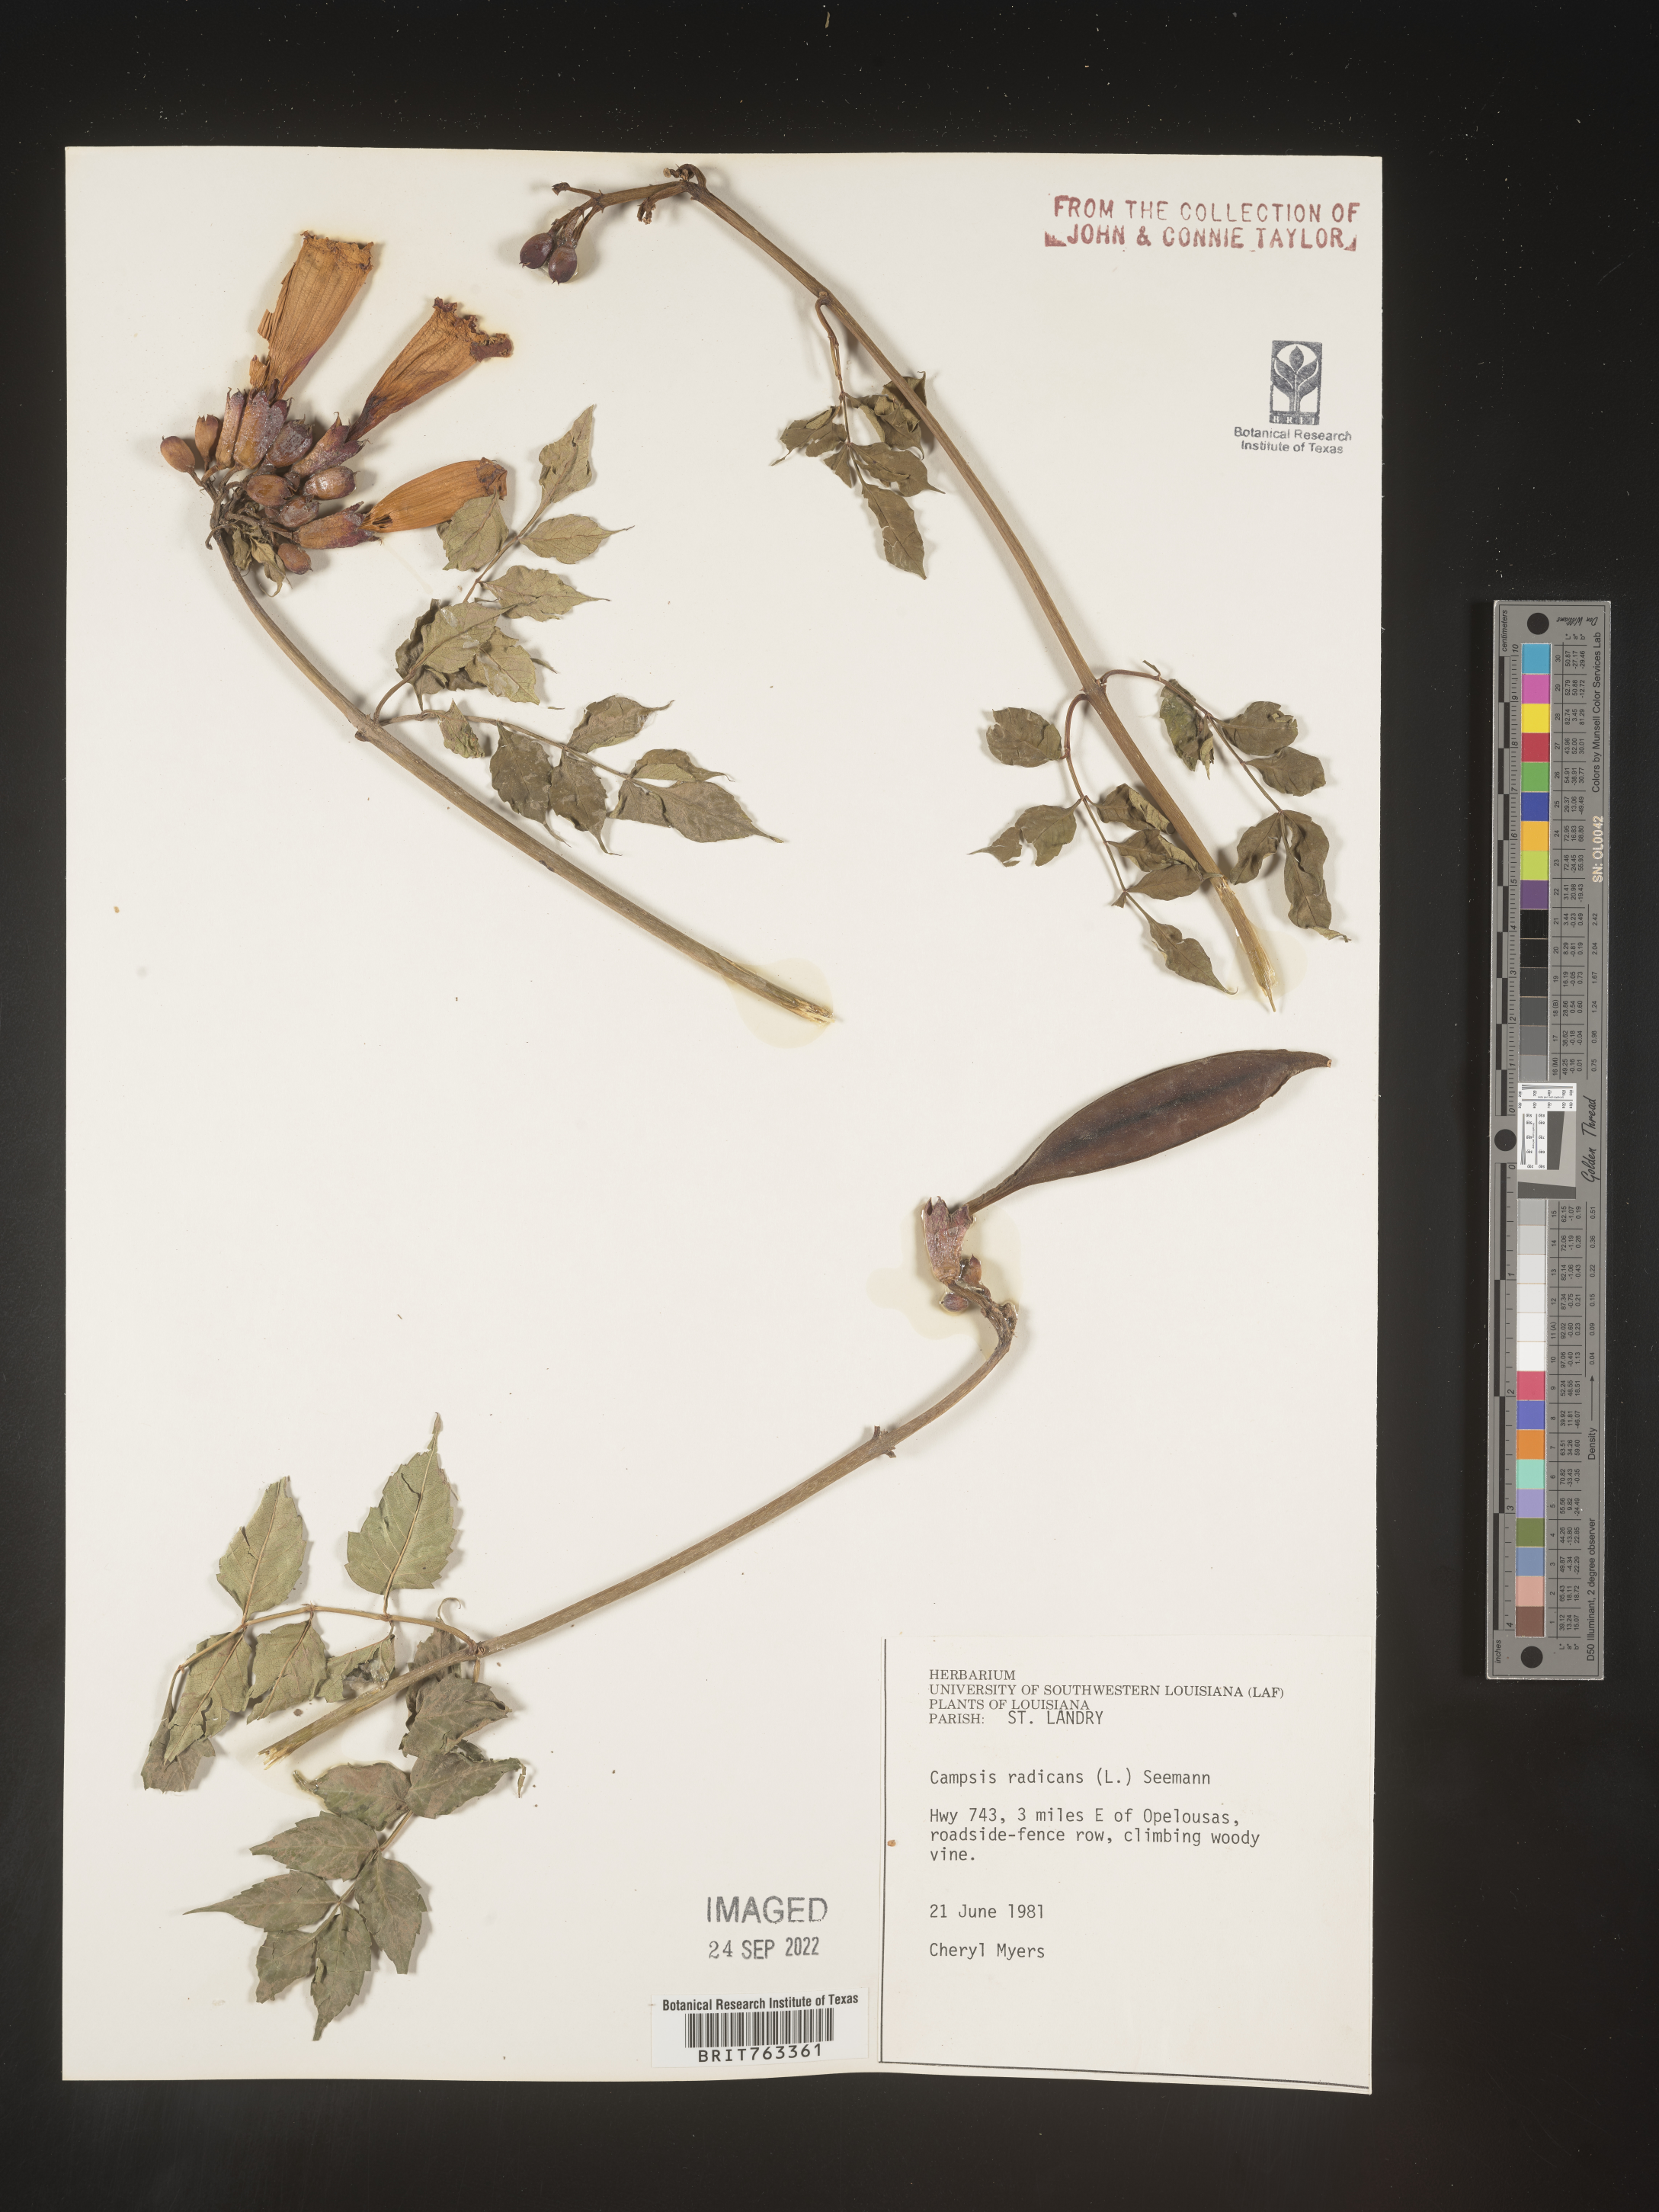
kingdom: Plantae
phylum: Tracheophyta
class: Magnoliopsida
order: Lamiales
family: Bignoniaceae
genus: Campsis
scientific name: Campsis radicans
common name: Trumpet-creeper
